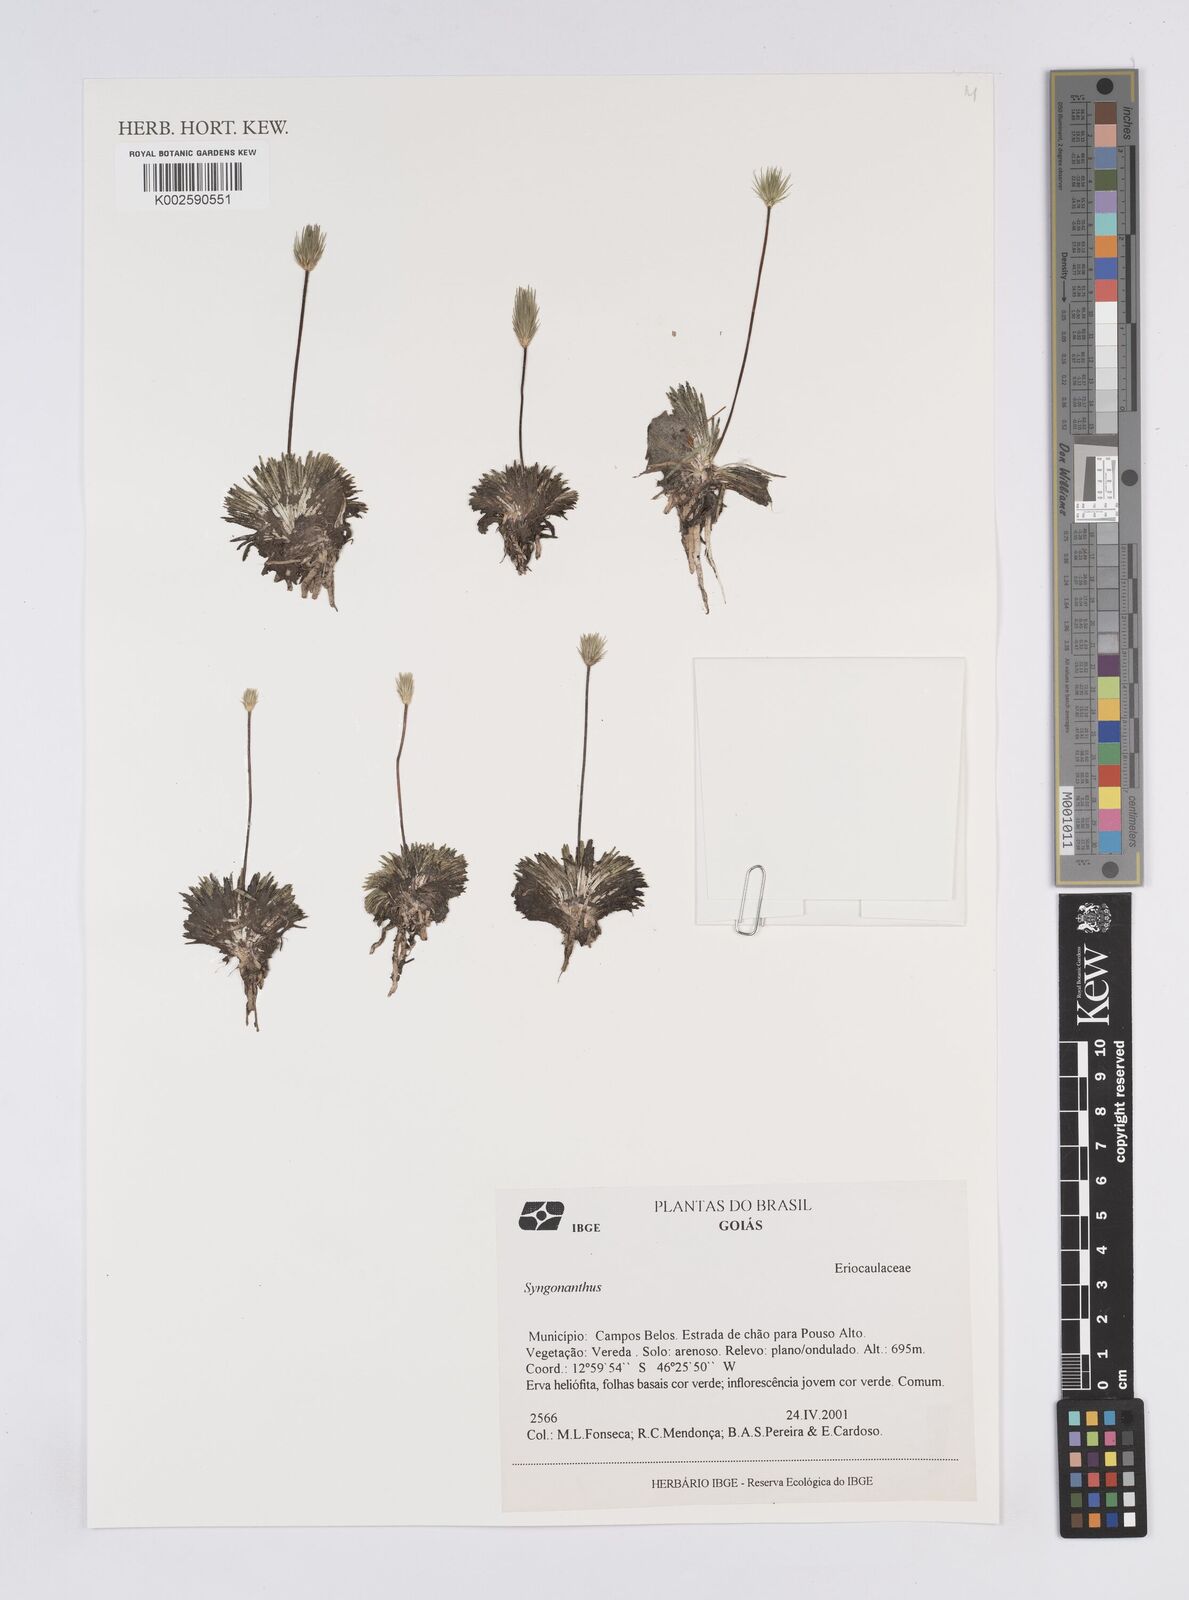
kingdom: Plantae
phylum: Tracheophyta
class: Liliopsida
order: Poales
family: Eriocaulaceae
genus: Syngonanthus
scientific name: Syngonanthus
